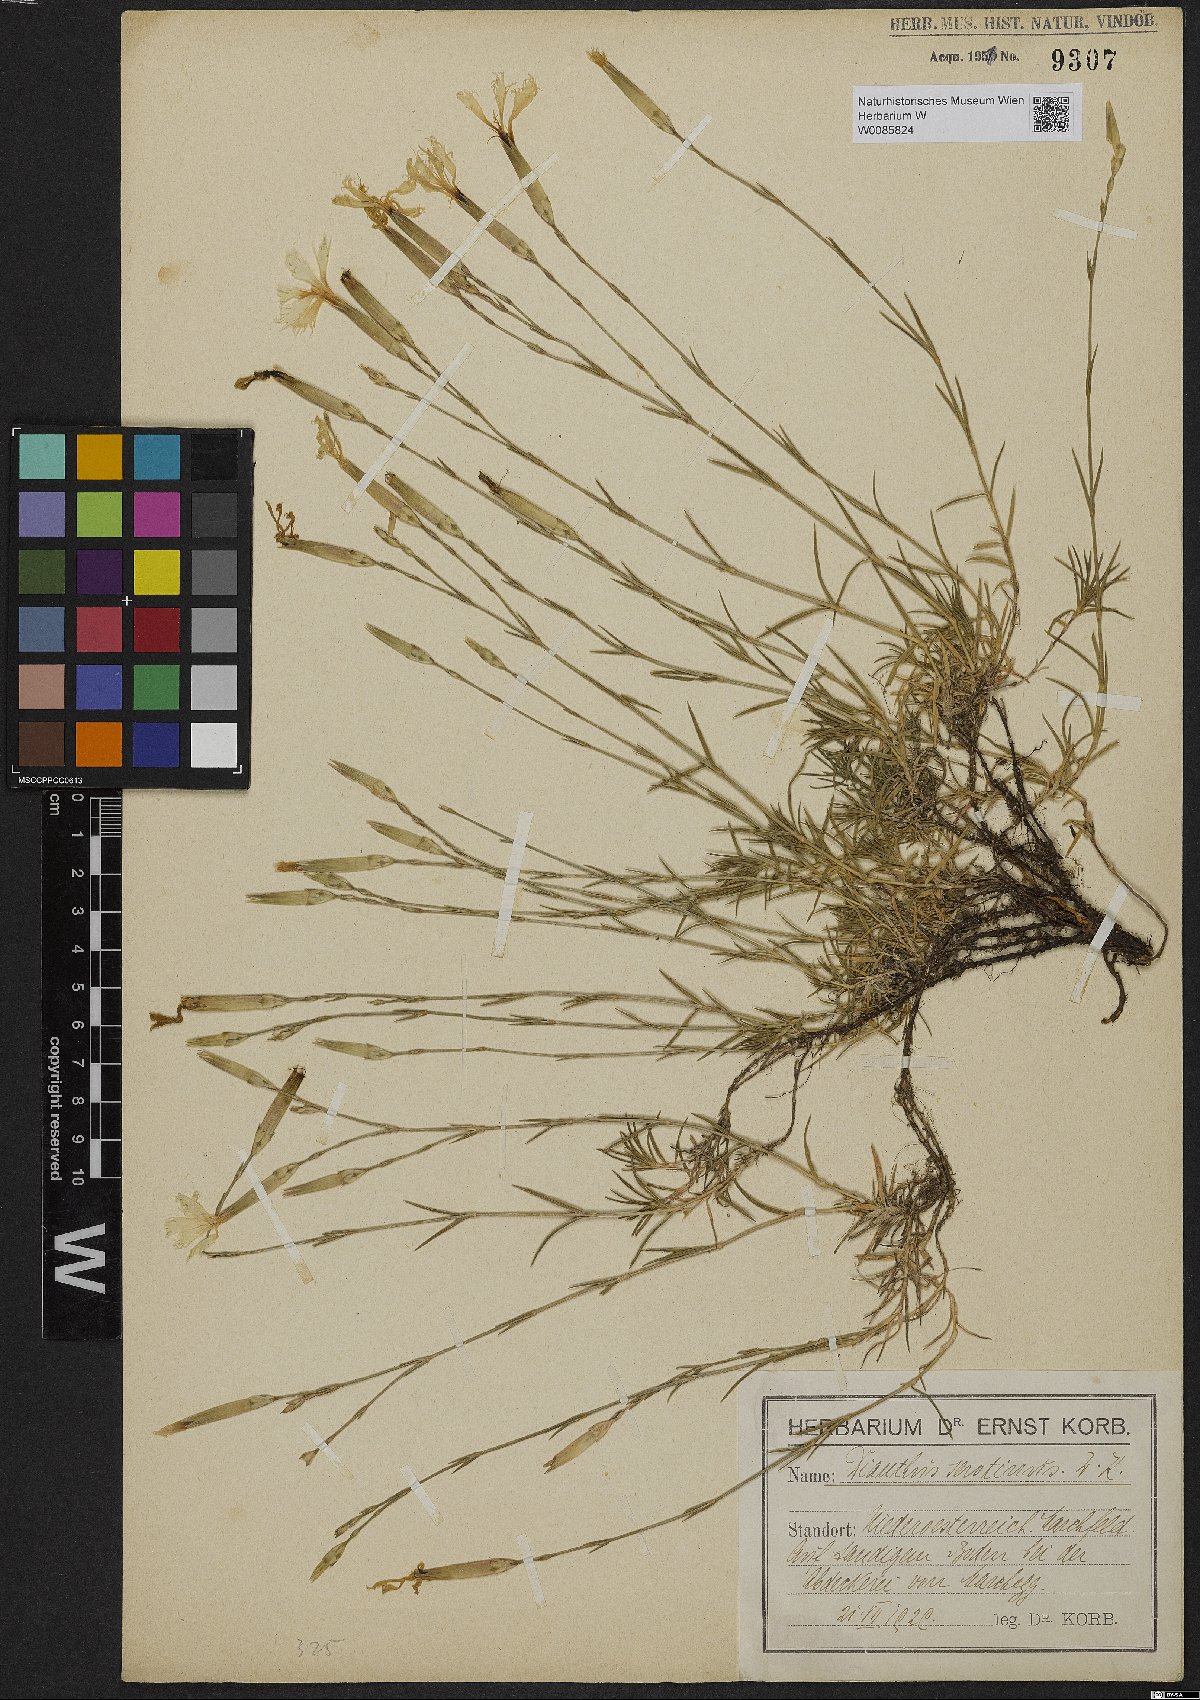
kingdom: Plantae
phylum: Tracheophyta
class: Magnoliopsida
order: Caryophyllales
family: Caryophyllaceae
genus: Dianthus
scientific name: Dianthus serotinus
